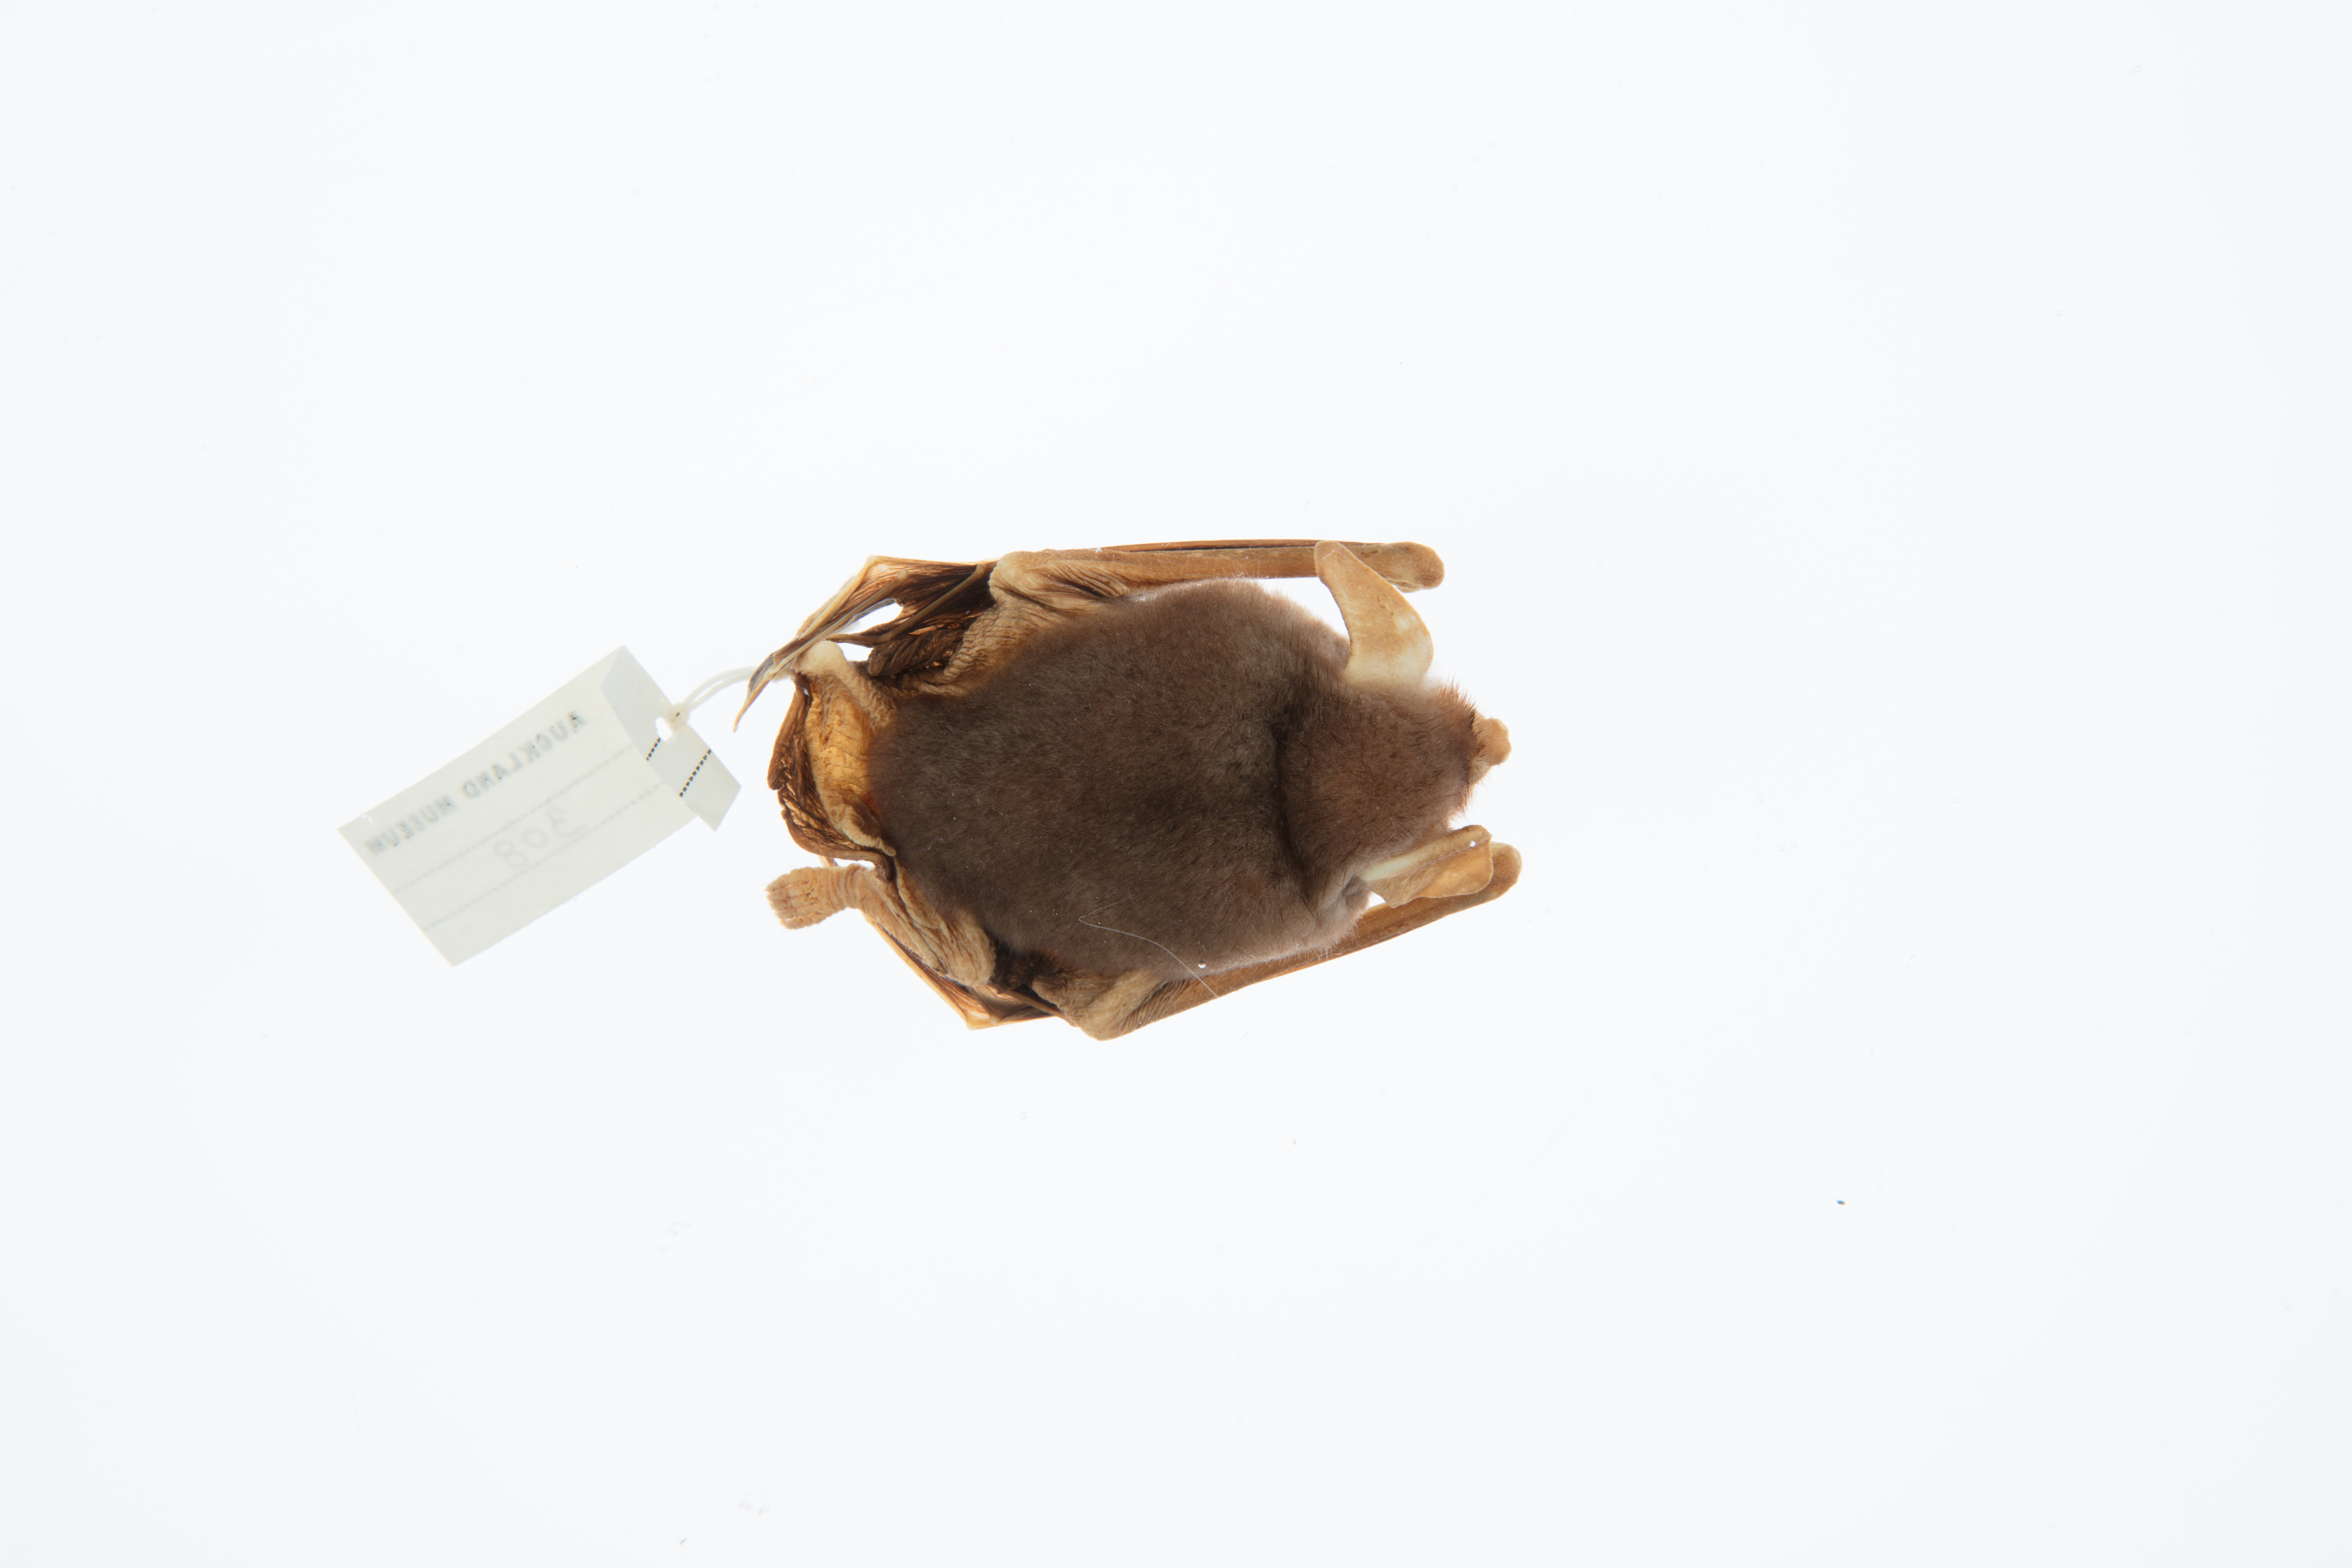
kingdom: Animalia
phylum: Chordata
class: Mammalia
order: Chiroptera
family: Mystacinidae
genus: Mystacina
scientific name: Mystacina tuberculata
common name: New zealand lesser short-tailed bat
